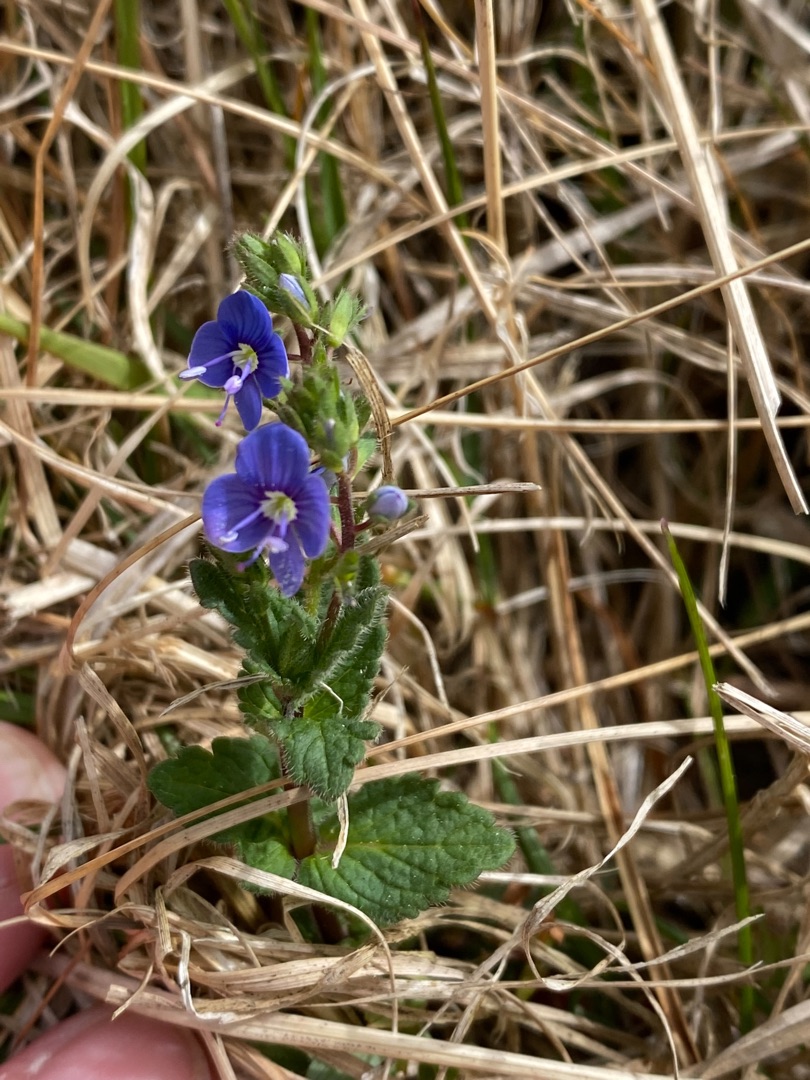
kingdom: Plantae
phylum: Tracheophyta
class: Magnoliopsida
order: Lamiales
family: Plantaginaceae
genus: Veronica
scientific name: Veronica chamaedrys
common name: Tveskægget ærenpris
